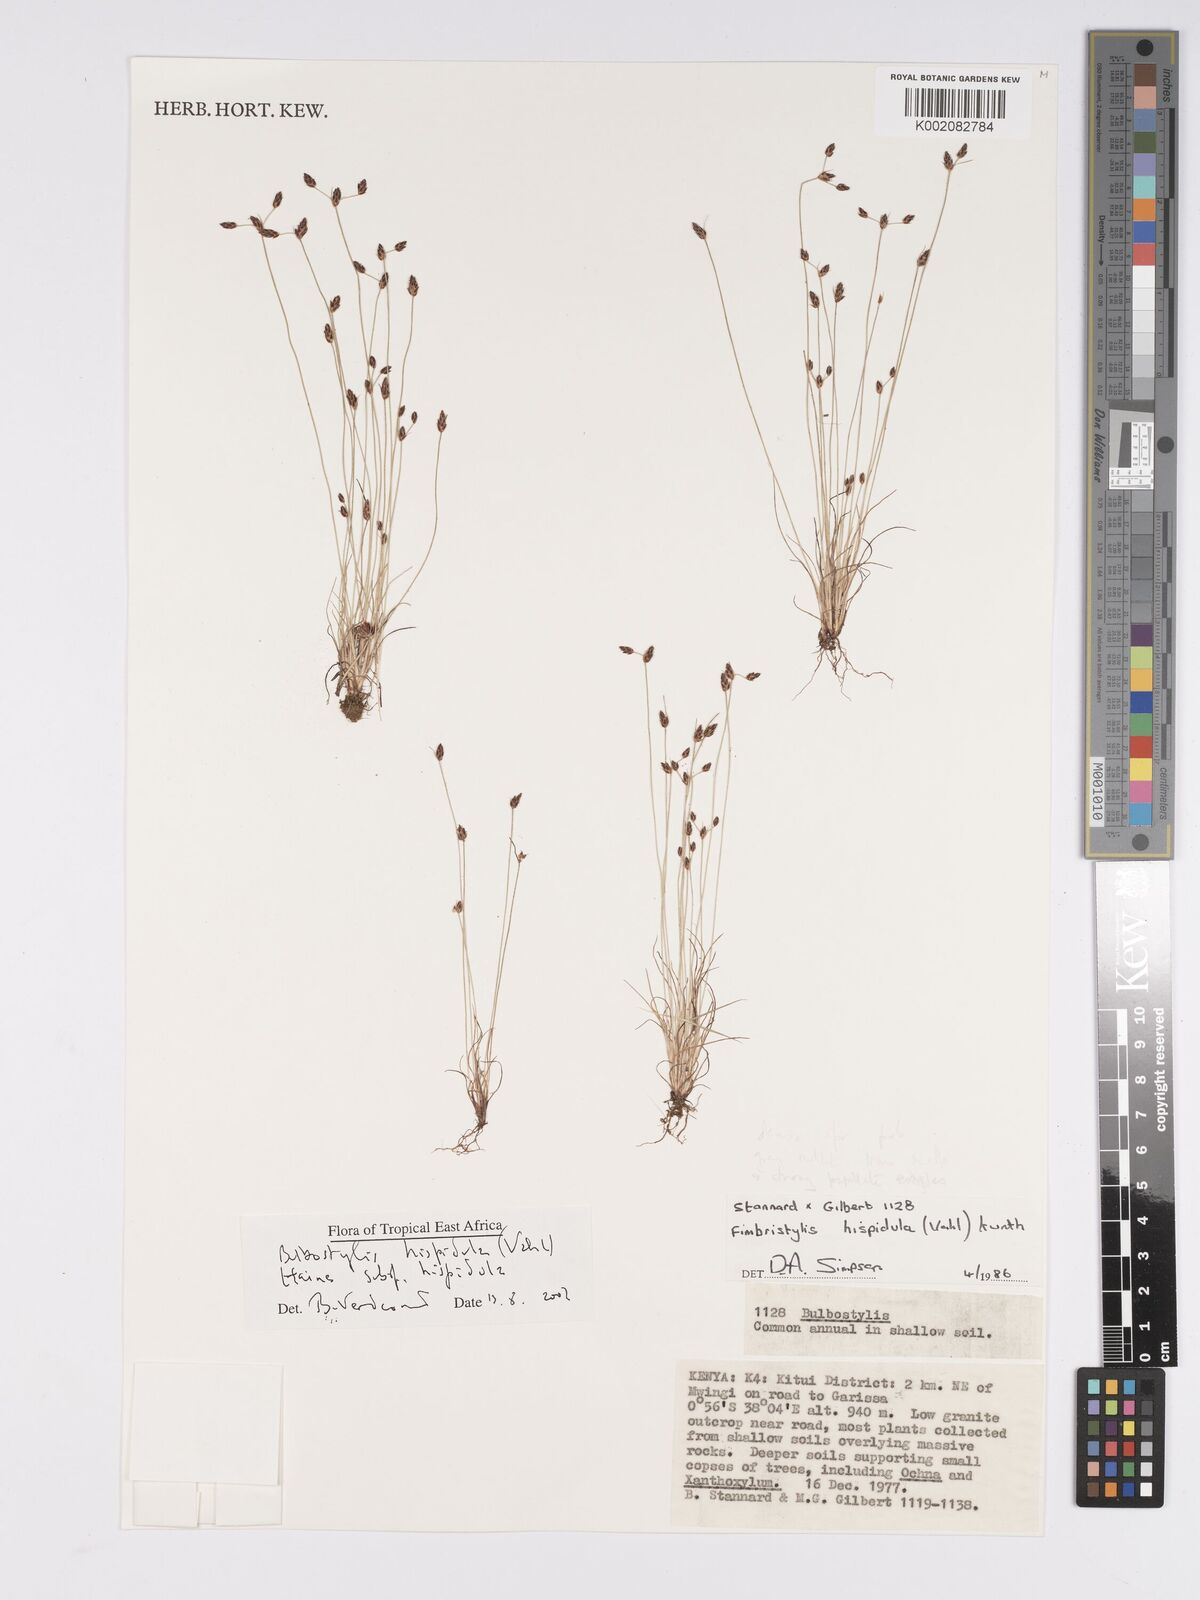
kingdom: Plantae
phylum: Tracheophyta
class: Liliopsida
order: Poales
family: Cyperaceae
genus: Bulbostylis
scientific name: Bulbostylis hispidula
